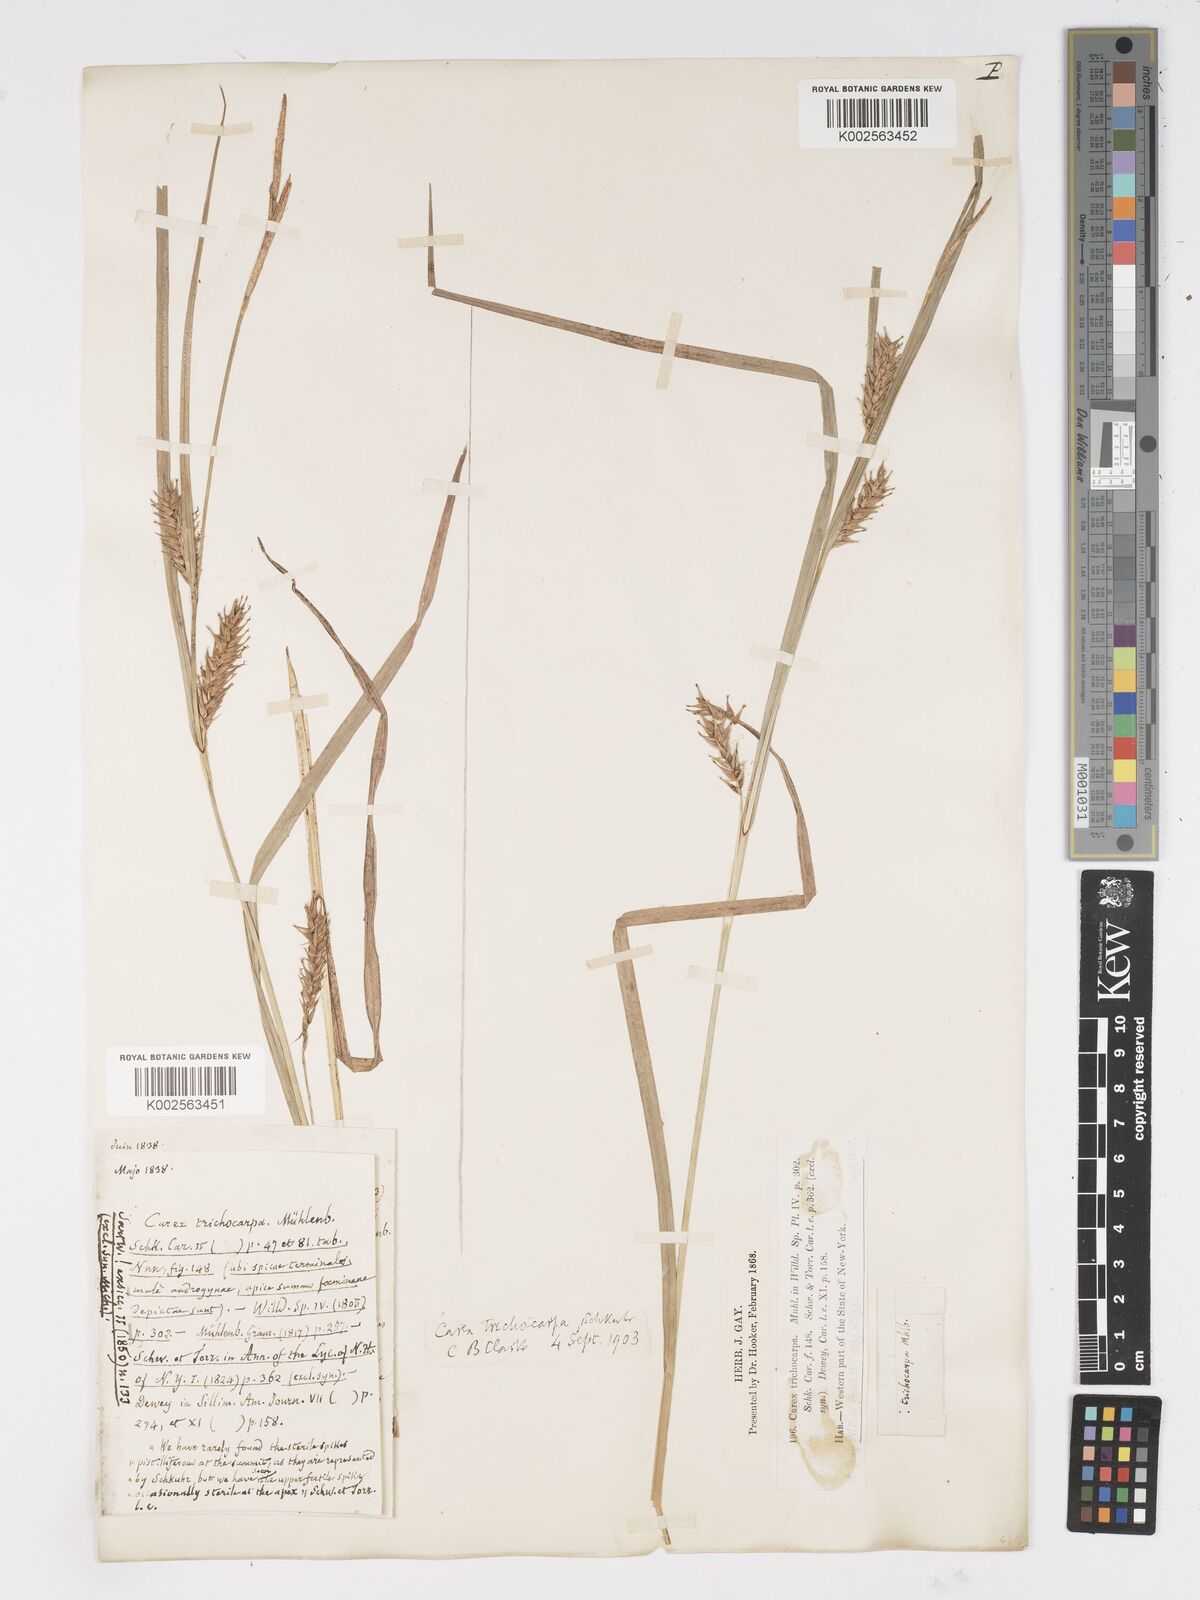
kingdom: Plantae
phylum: Tracheophyta
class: Liliopsida
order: Poales
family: Cyperaceae
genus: Carex
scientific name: Carex trichocarpa
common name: Hairy-fruited lake sedge
